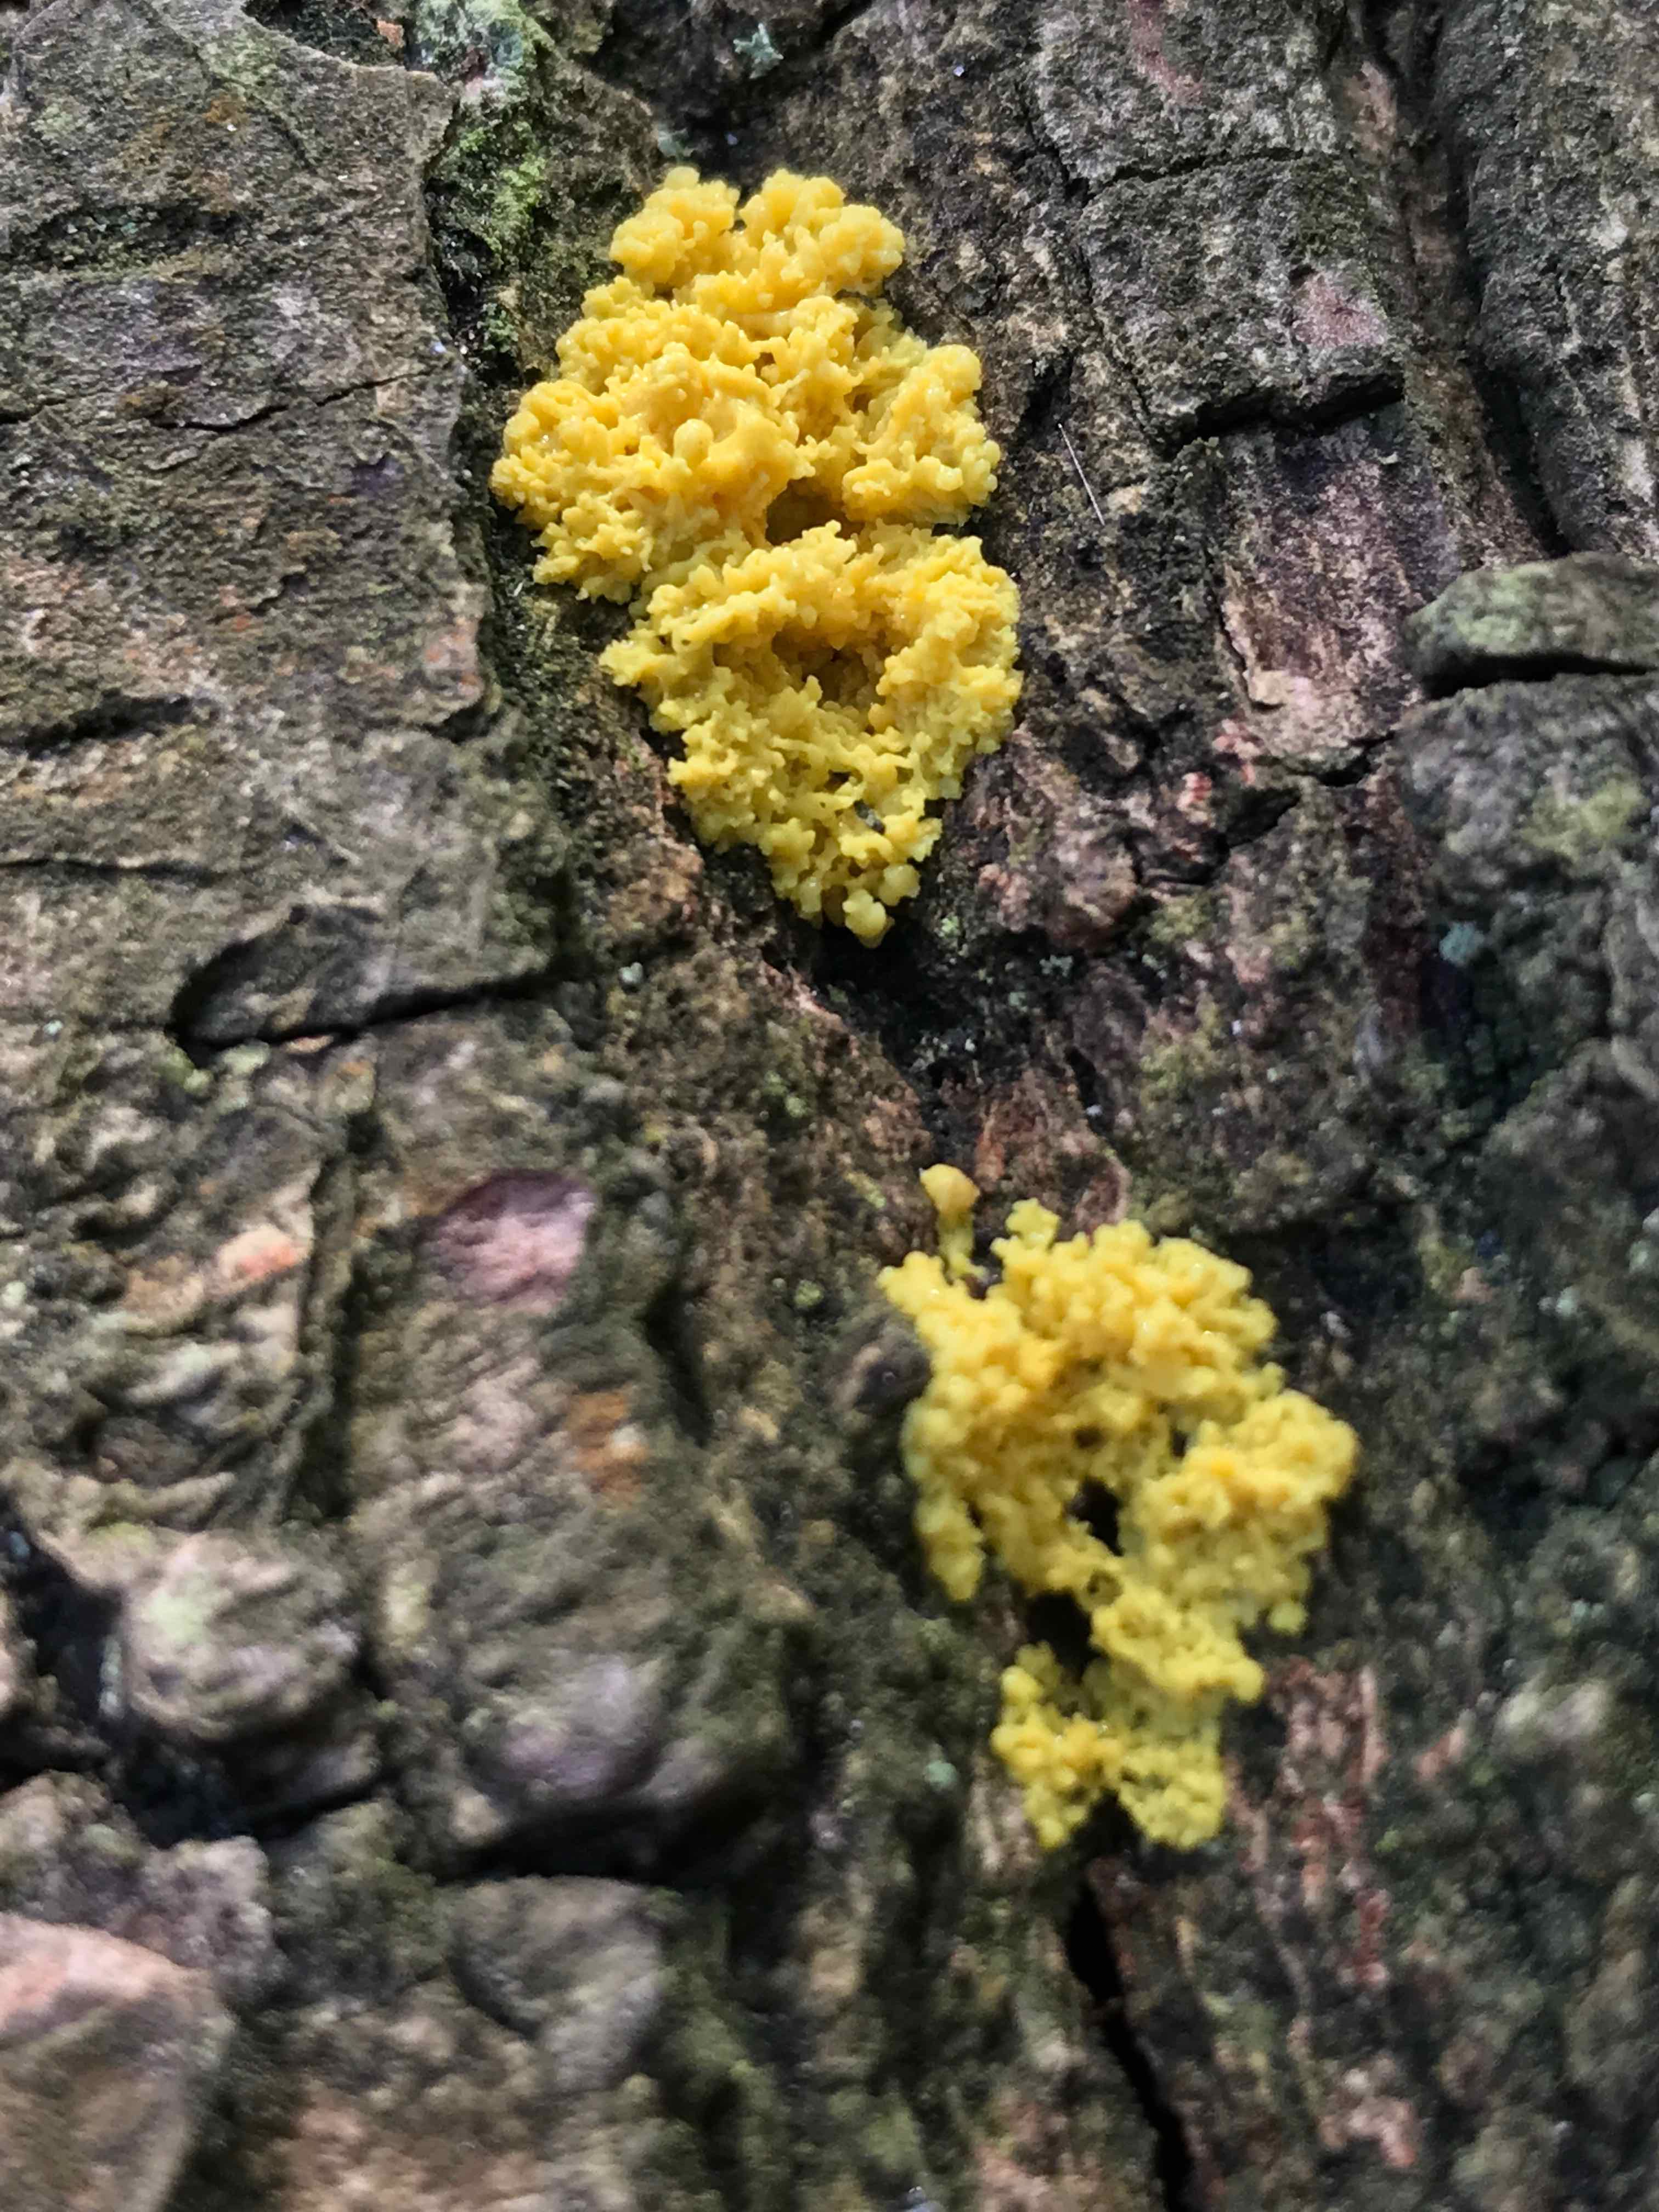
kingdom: Protozoa
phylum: Mycetozoa
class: Myxomycetes
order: Physarales
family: Physaraceae
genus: Fuligo
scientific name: Fuligo septica
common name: gul troldsmør
